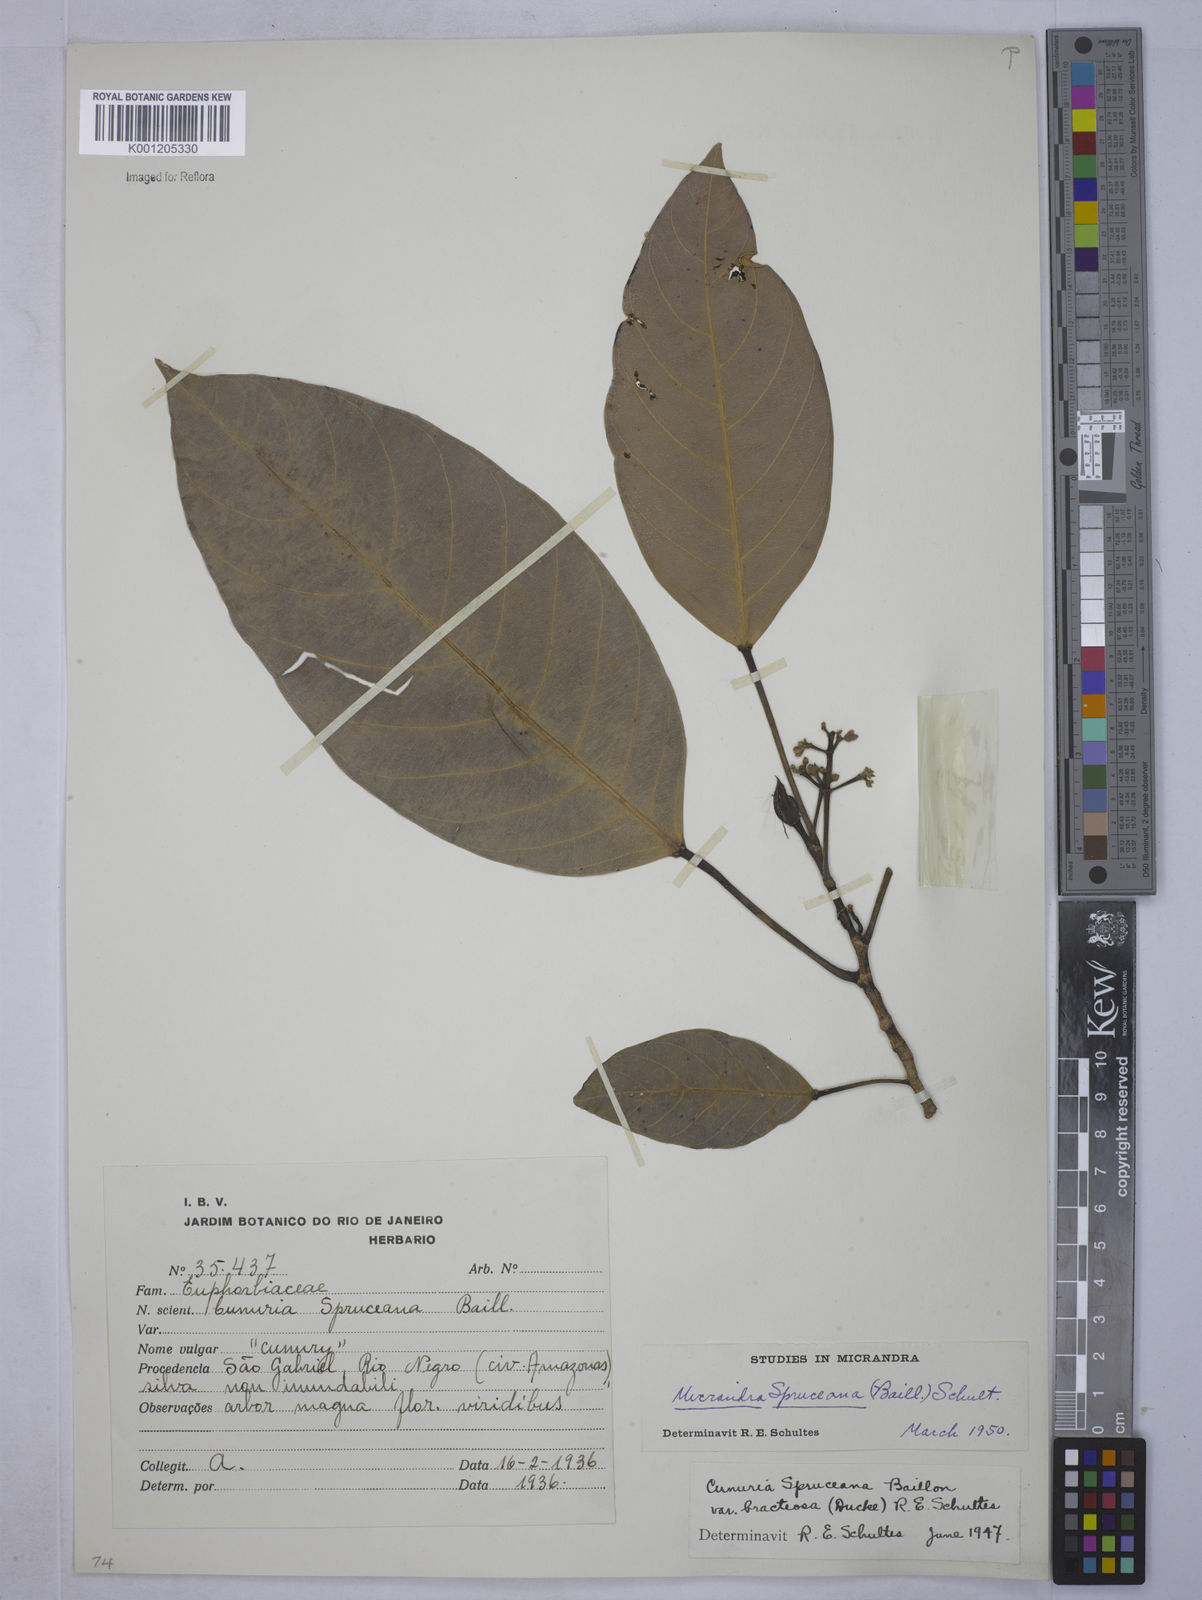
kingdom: Plantae
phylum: Tracheophyta
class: Magnoliopsida
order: Malpighiales
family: Euphorbiaceae
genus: Micrandra
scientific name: Micrandra spruceana
